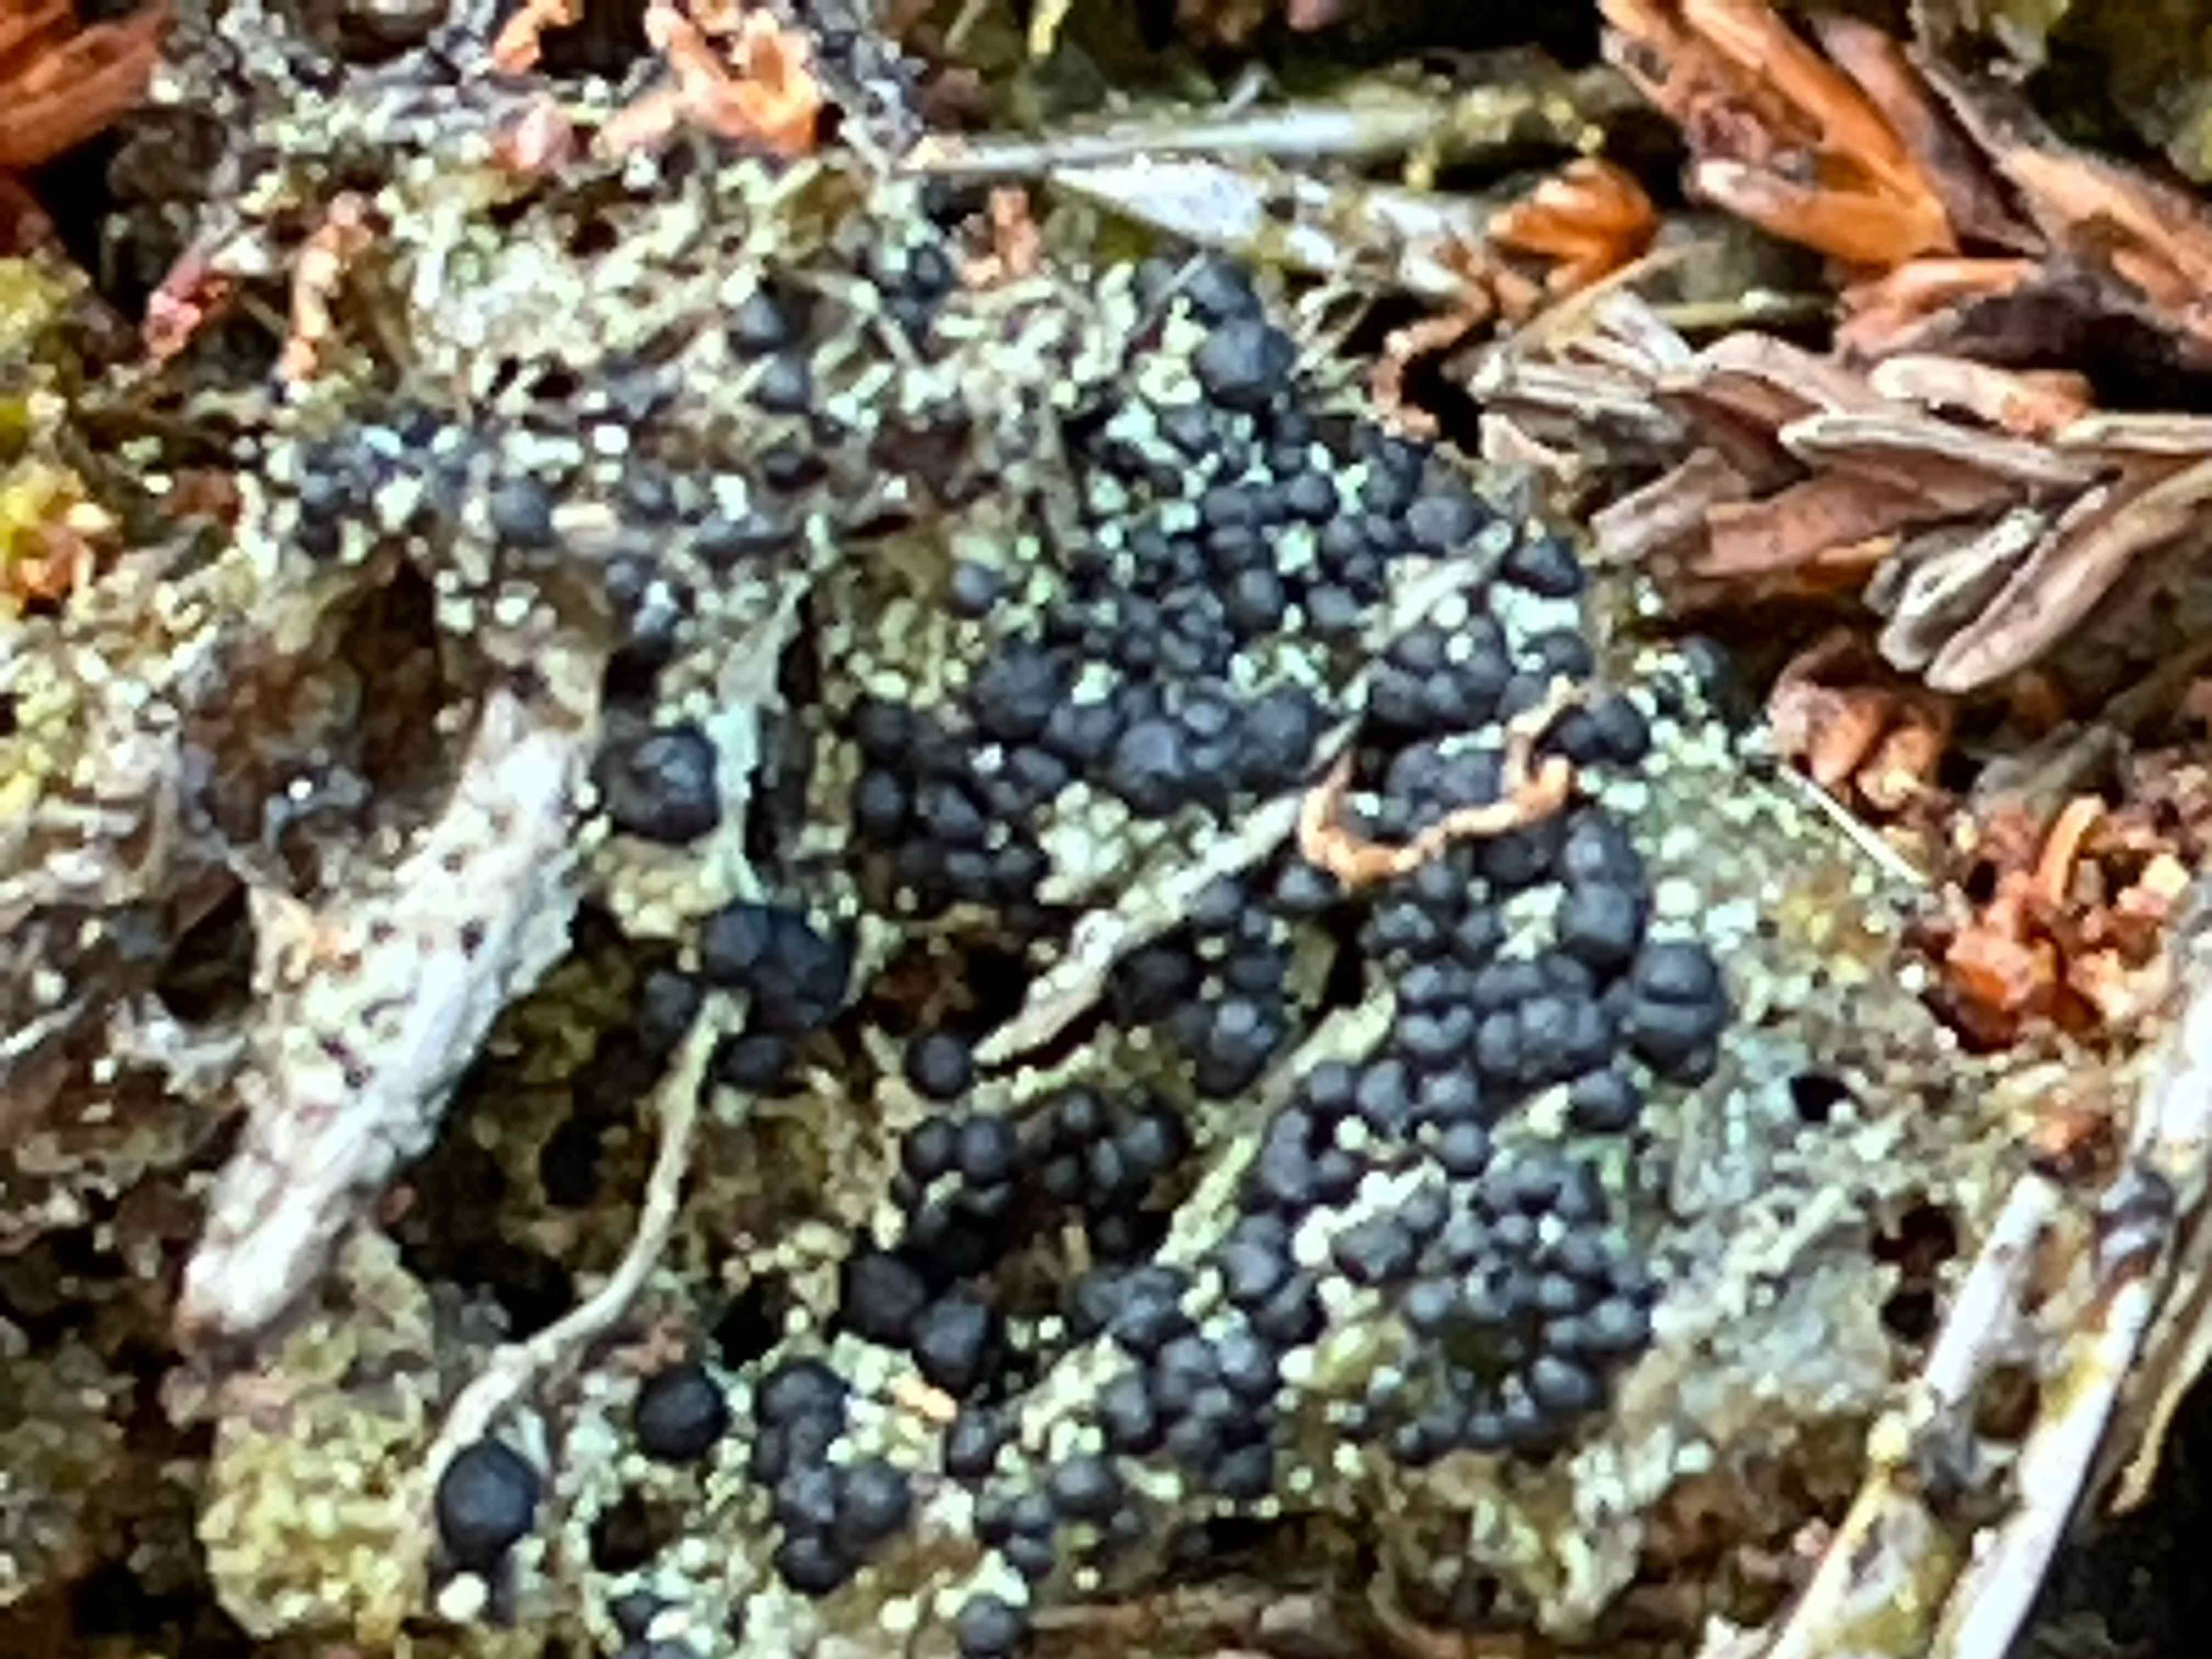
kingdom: Fungi
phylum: Ascomycota
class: Lecanoromycetes
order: Lecanorales
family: Byssolomataceae
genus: Micarea
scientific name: Micarea lignaria
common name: tørve-knaplav
